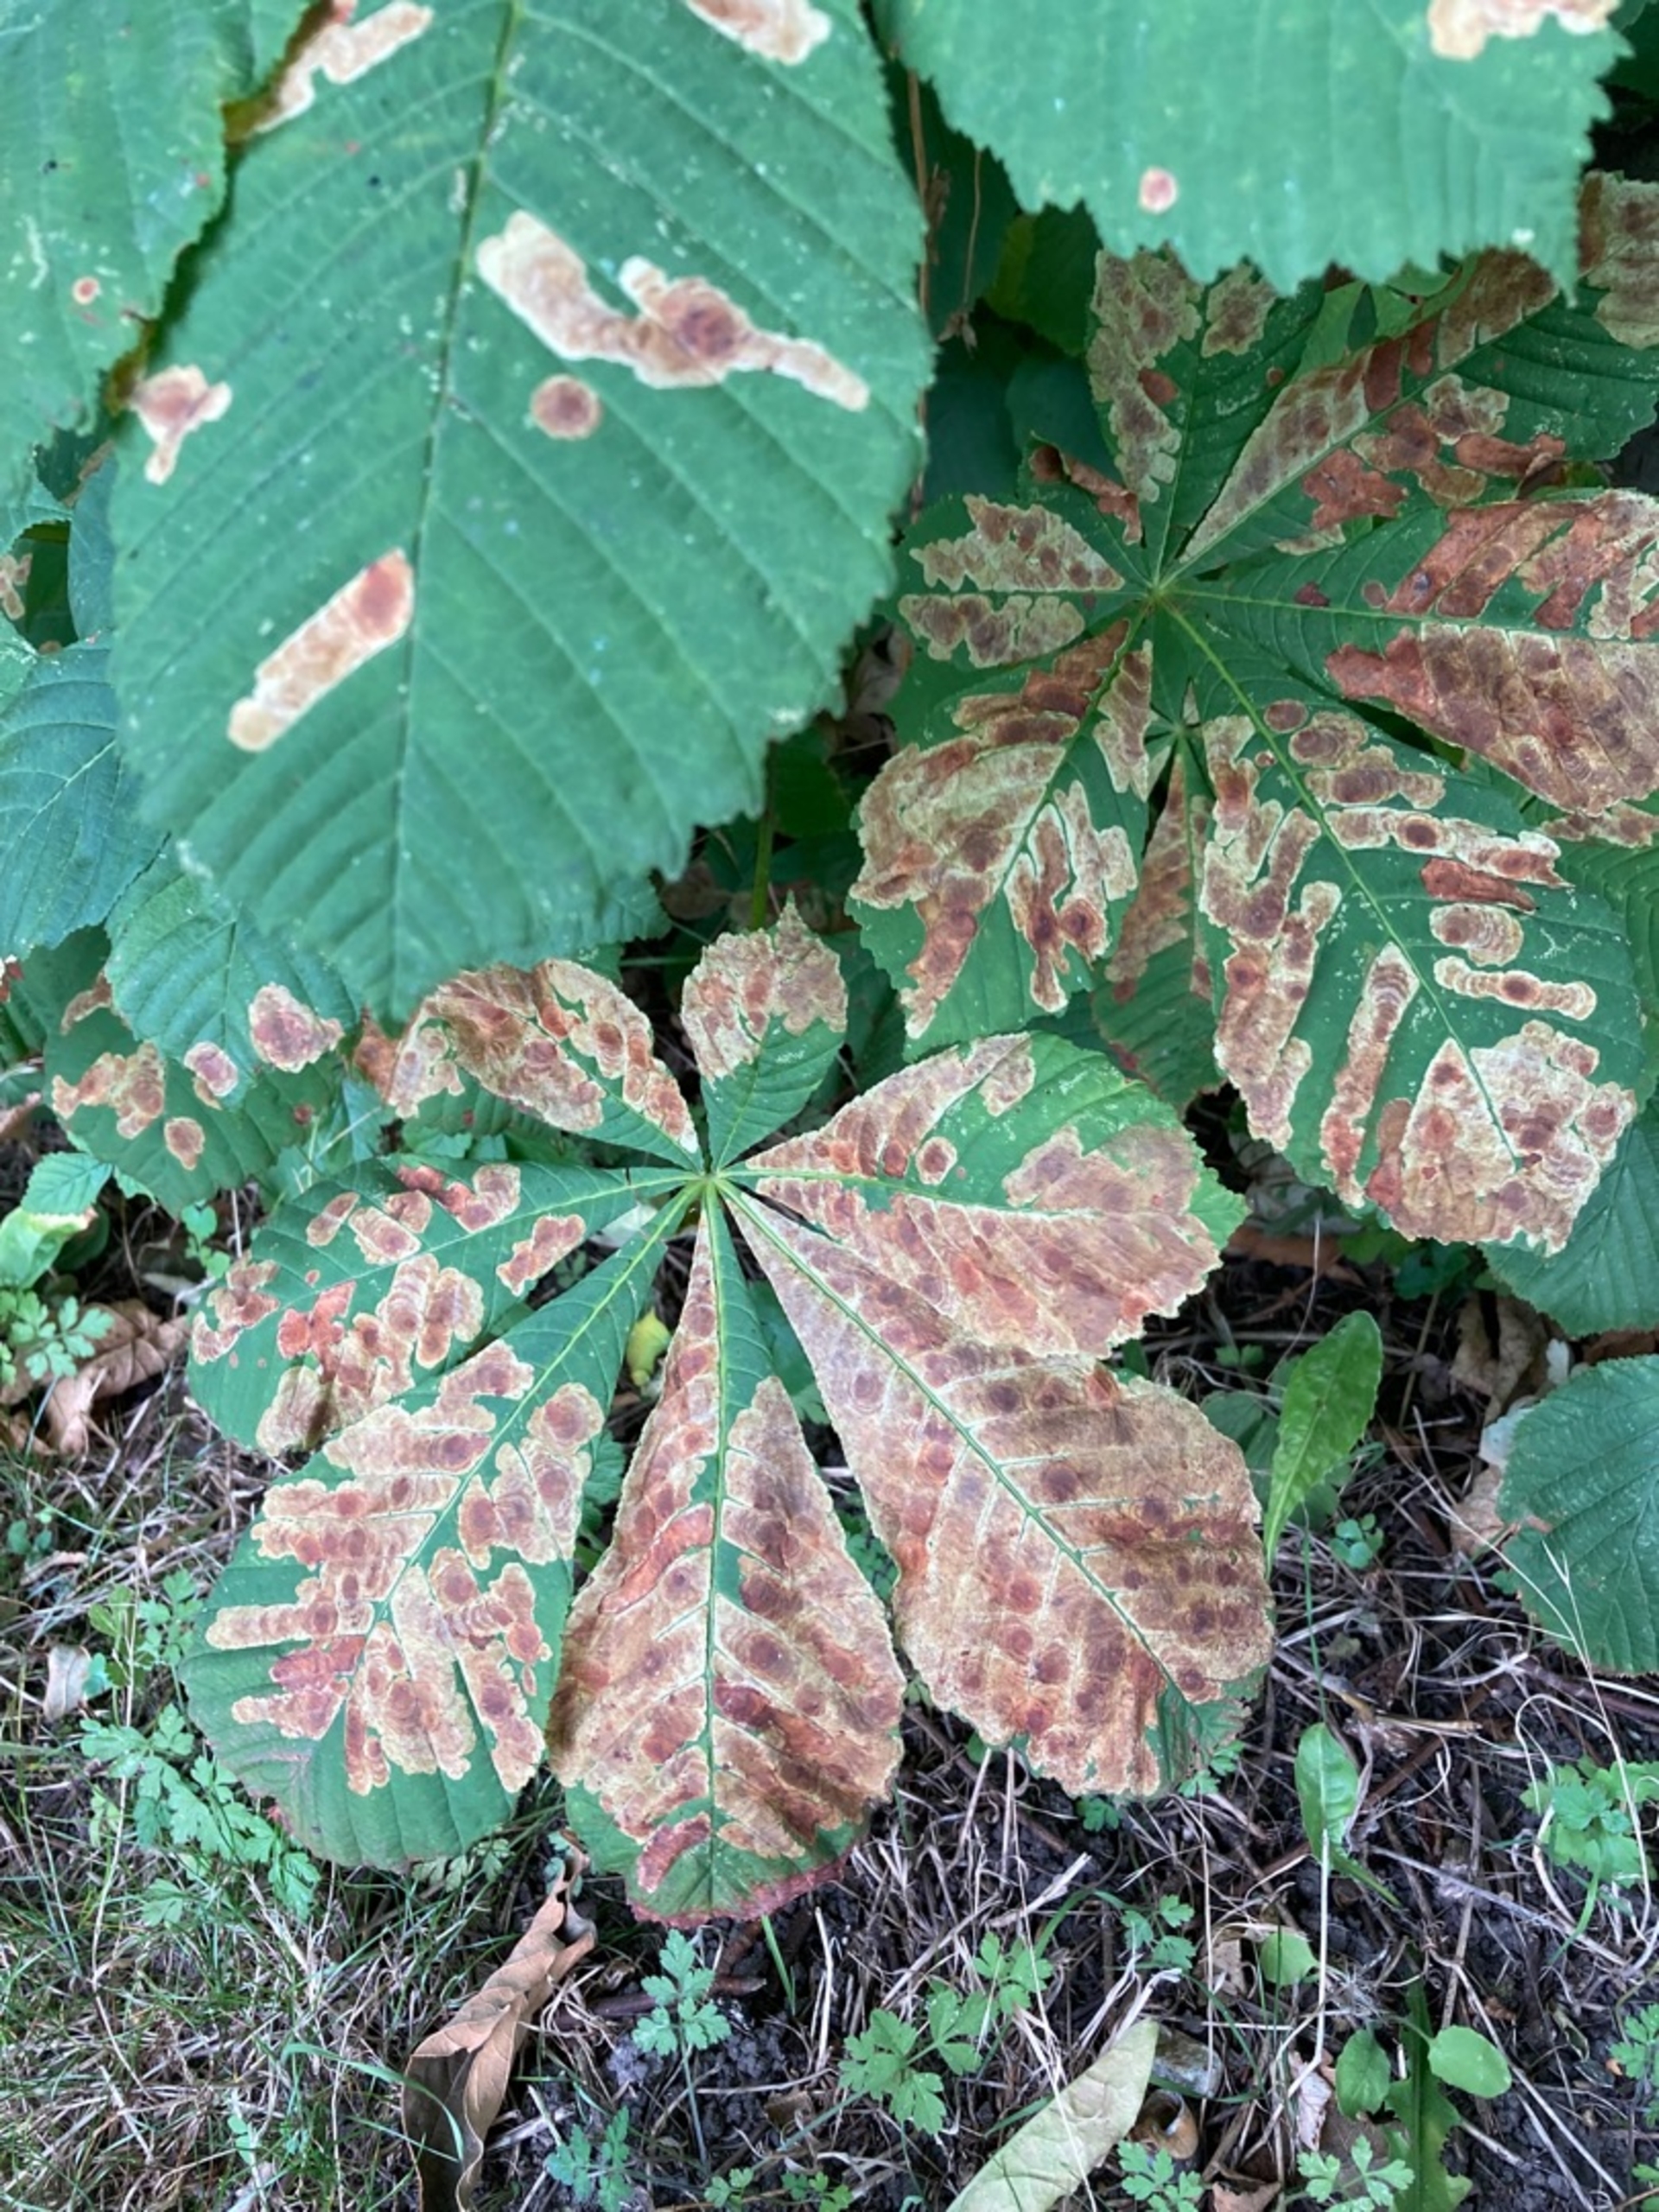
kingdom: Plantae
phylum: Tracheophyta
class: Magnoliopsida
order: Sapindales
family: Sapindaceae
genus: Aesculus
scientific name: Aesculus hippocastanum
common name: Hestekastanie
